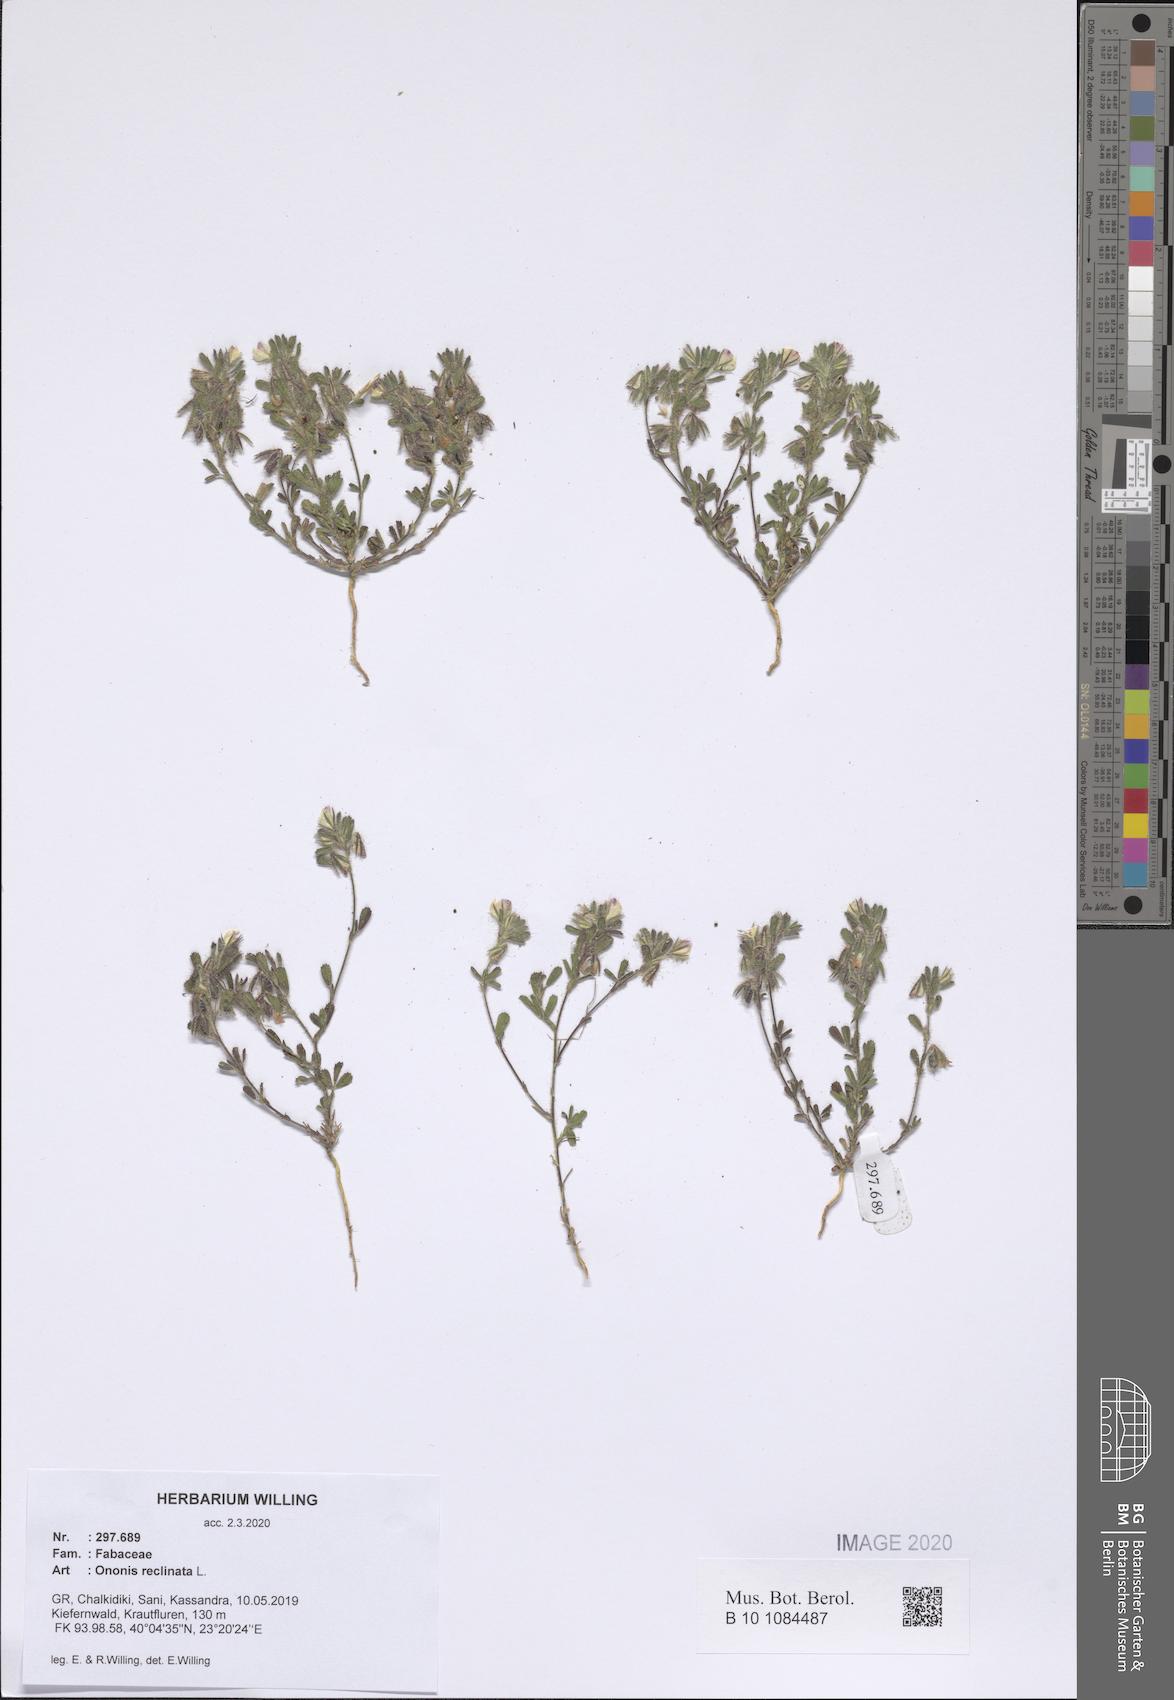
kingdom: Plantae
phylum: Tracheophyta
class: Magnoliopsida
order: Fabales
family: Fabaceae
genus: Ononis
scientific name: Ononis reclinata
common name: Small restharrow
